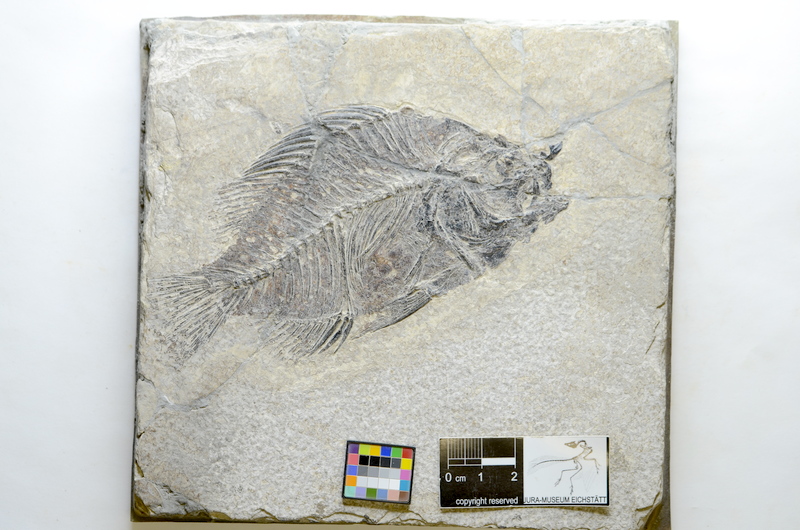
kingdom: Animalia
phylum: Chordata
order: Perciformes
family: Pomacentridae
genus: Priscacara
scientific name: Priscacara oxyprion
